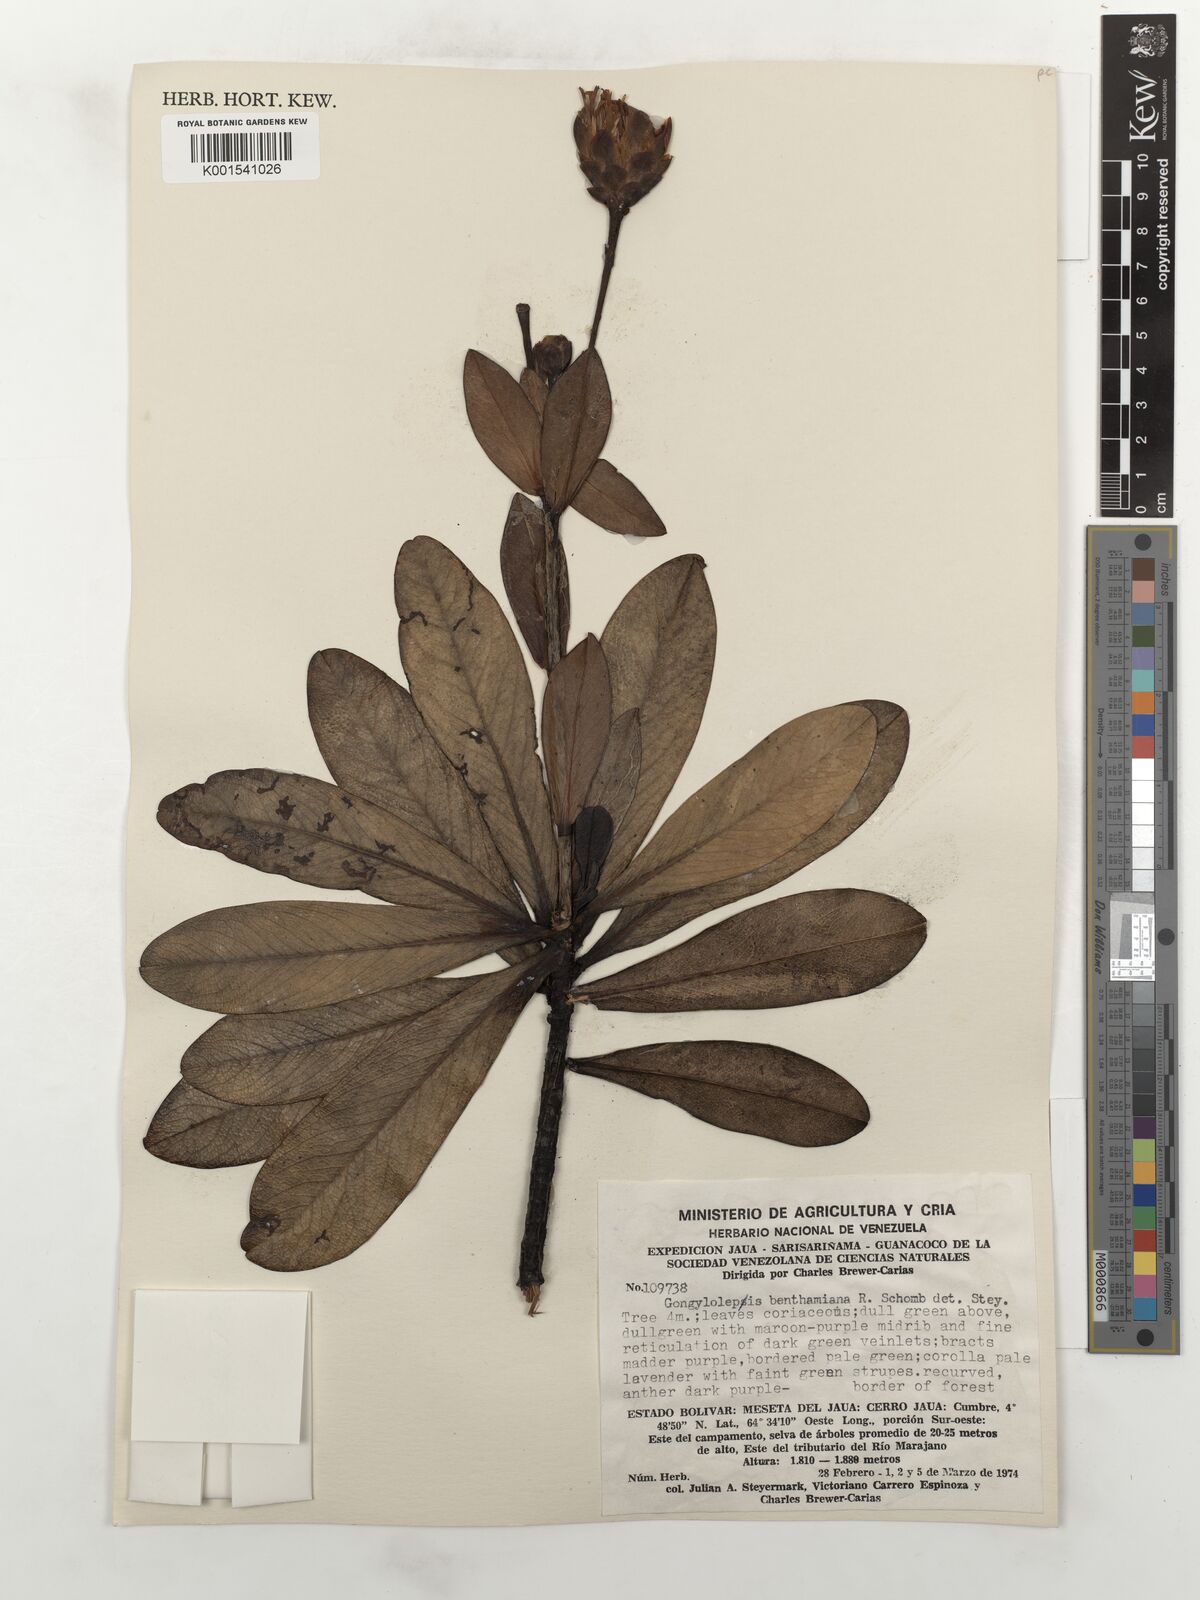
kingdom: Plantae
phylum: Tracheophyta
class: Magnoliopsida
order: Asterales
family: Asteraceae
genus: Gongylolepis
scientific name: Gongylolepis benthamiana
